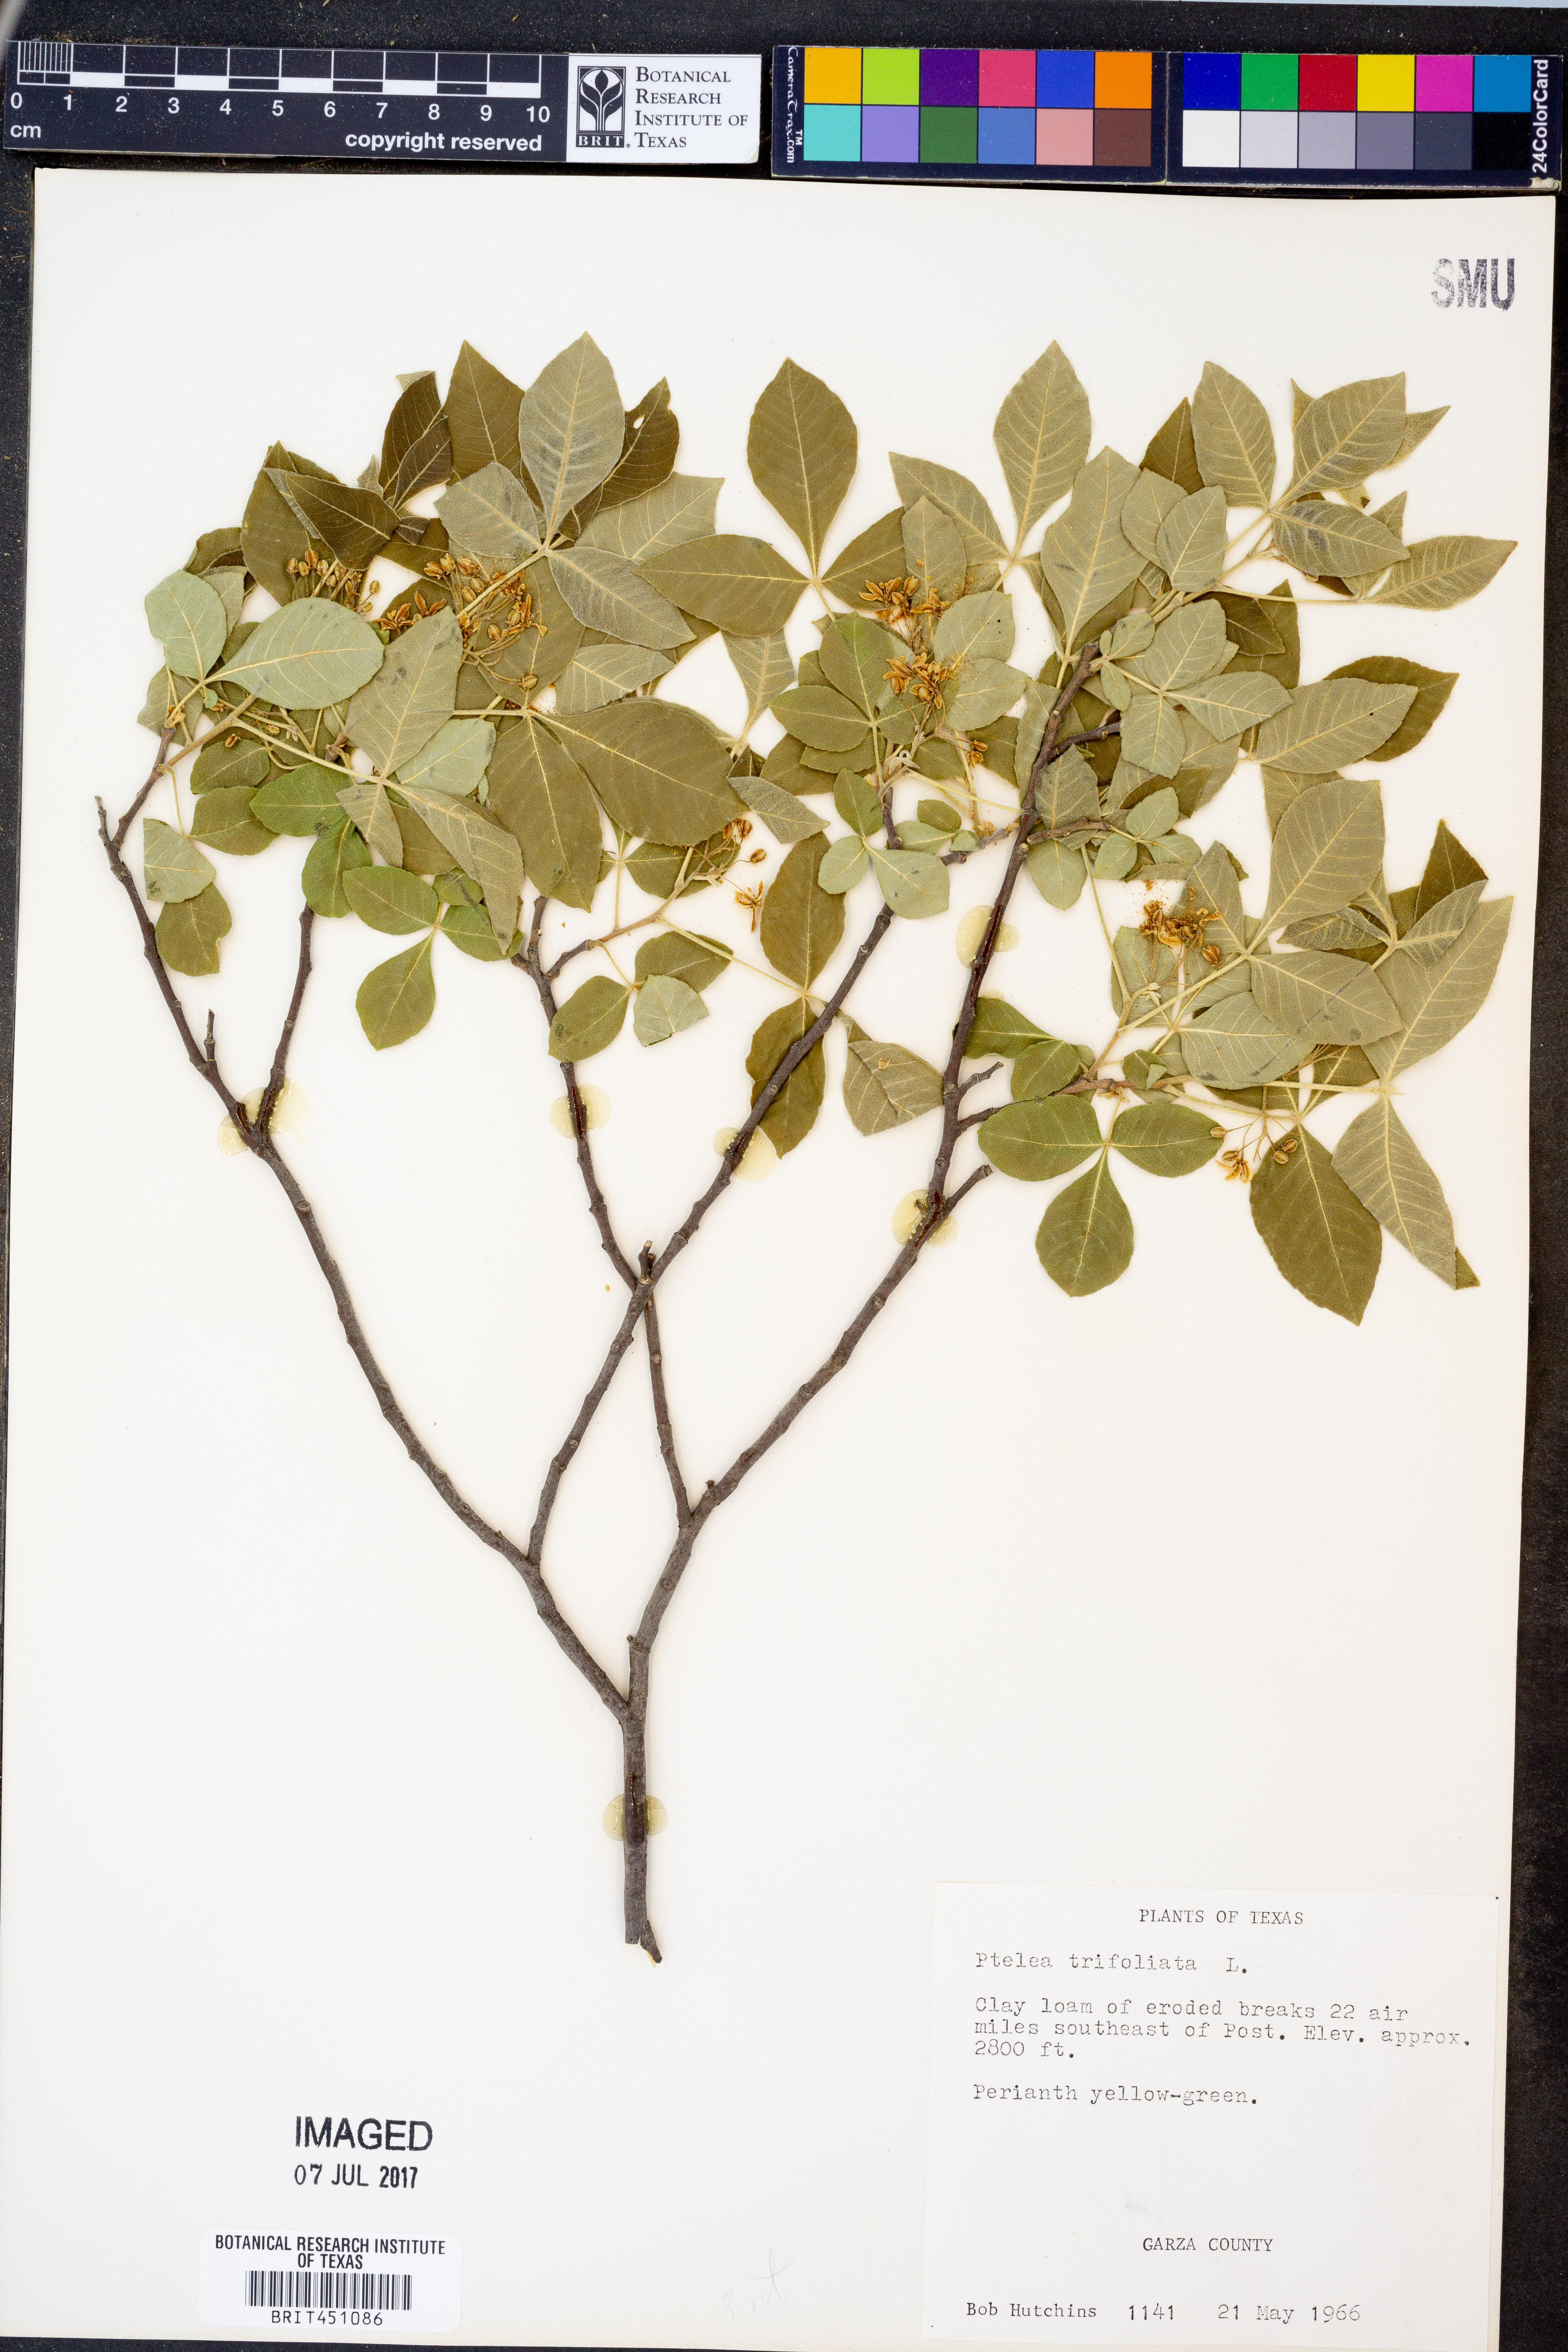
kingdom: Plantae
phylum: Tracheophyta
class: Magnoliopsida
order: Sapindales
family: Rutaceae
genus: Ptelea
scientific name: Ptelea trifoliata
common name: Common hop-tree
